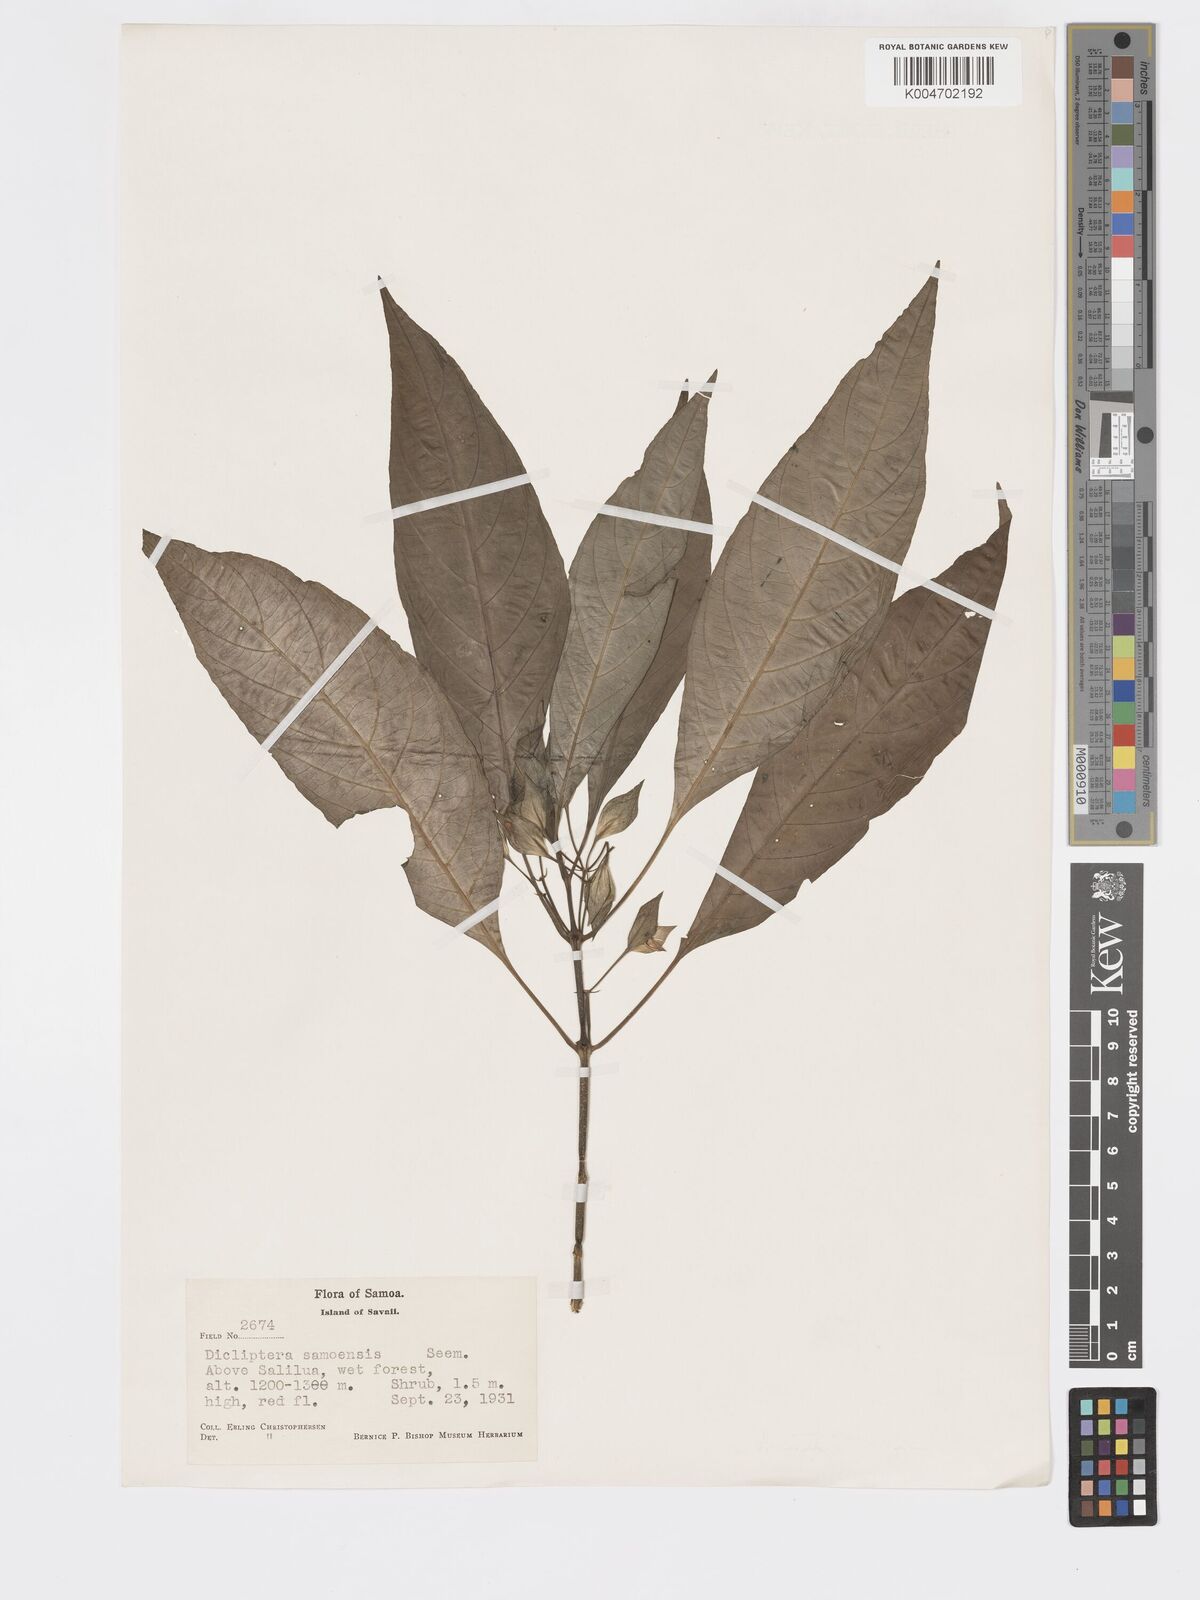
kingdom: Plantae
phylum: Tracheophyta
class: Magnoliopsida
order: Lamiales
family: Acanthaceae
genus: Dicliptera
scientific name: Dicliptera samoensis
